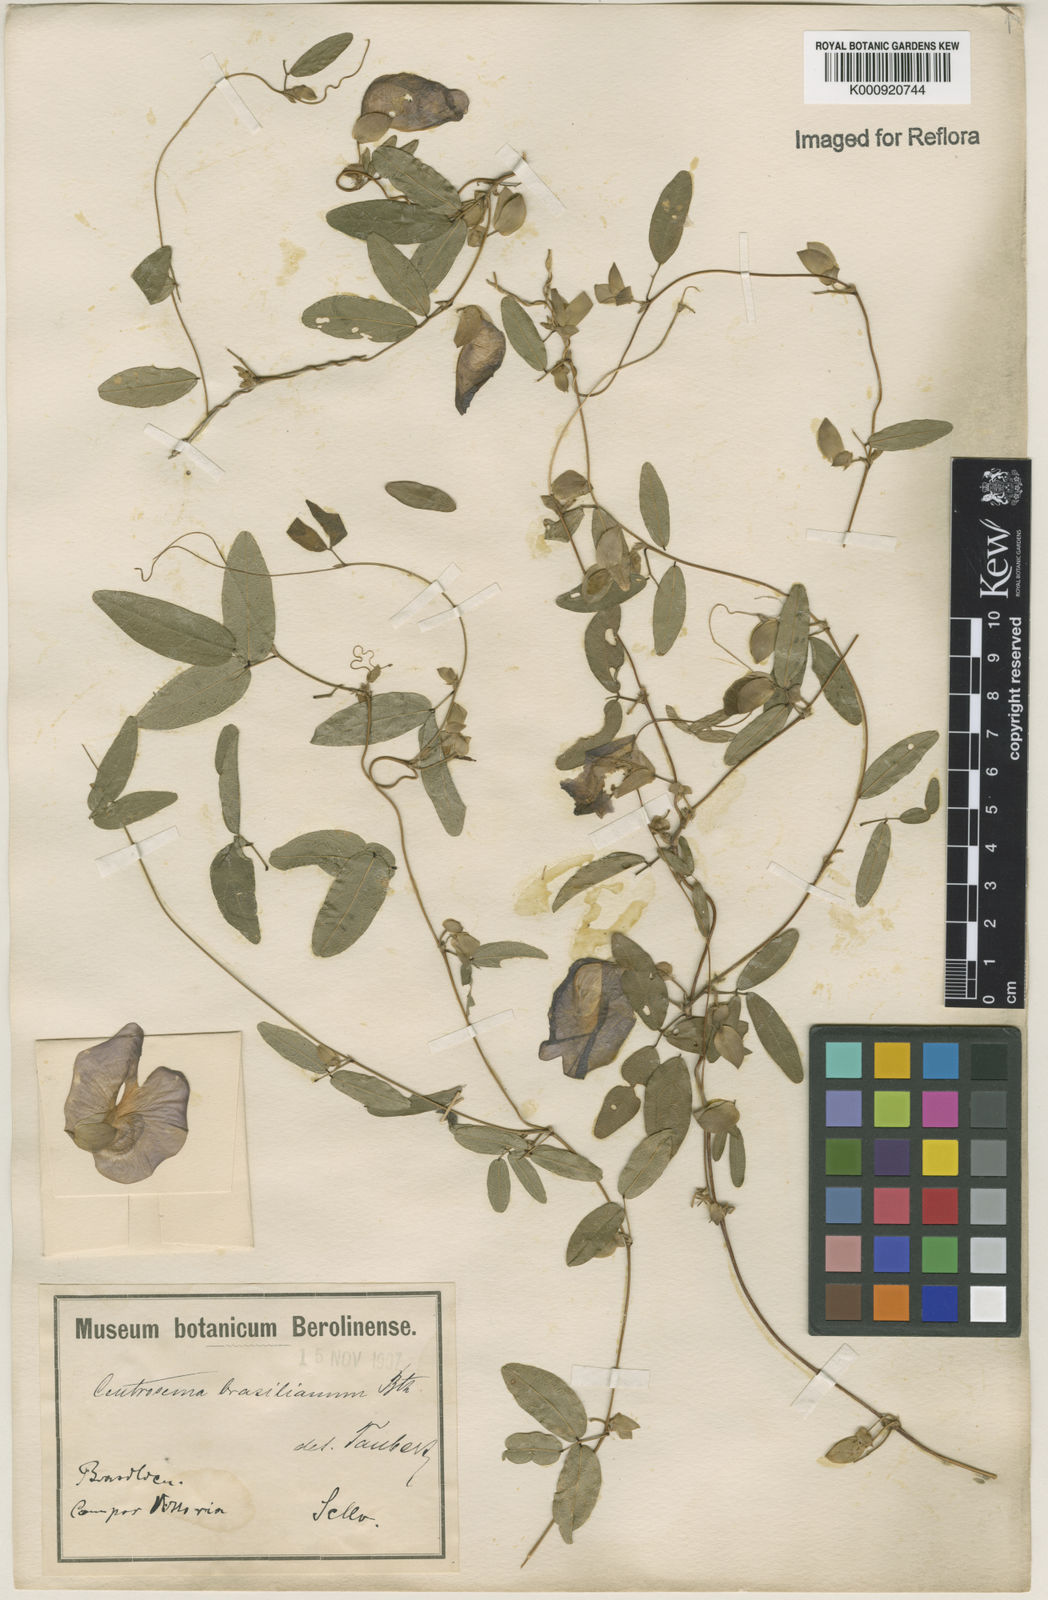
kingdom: Plantae
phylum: Tracheophyta
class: Magnoliopsida
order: Fabales
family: Fabaceae
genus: Centrosema
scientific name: Centrosema brasilianum
